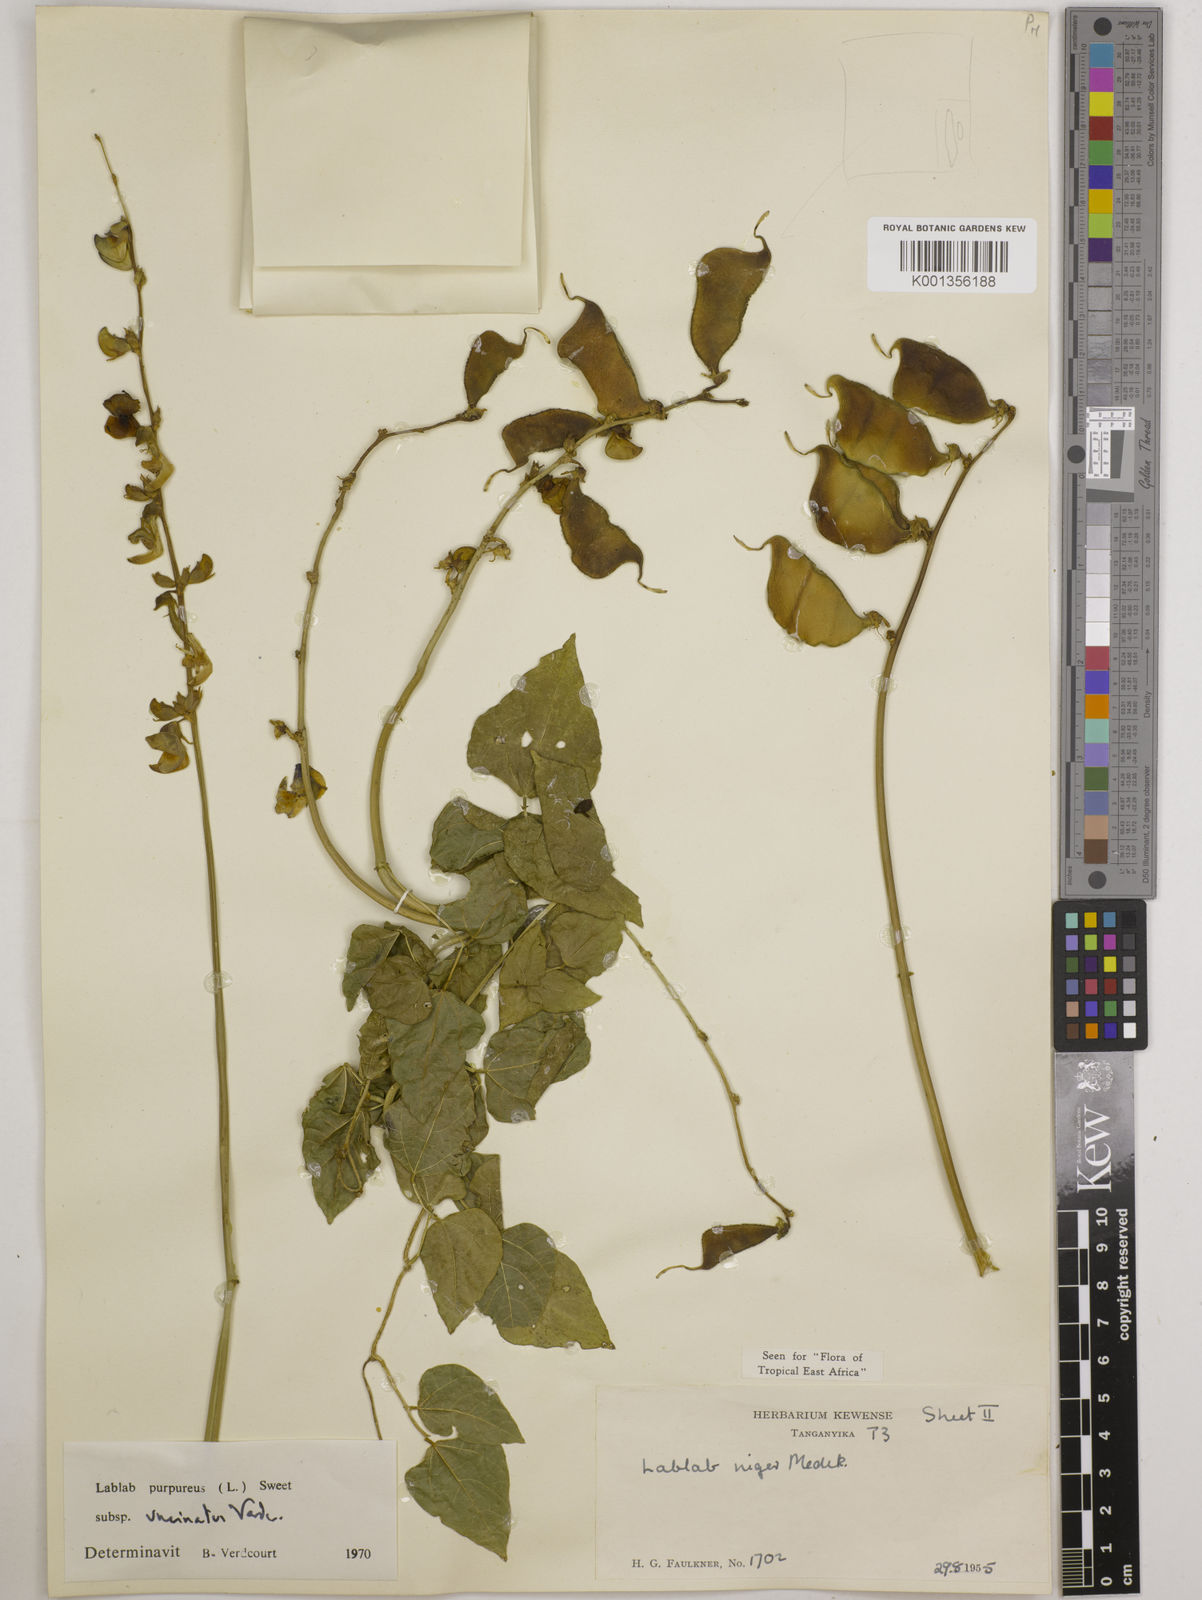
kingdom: Plantae
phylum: Tracheophyta
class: Magnoliopsida
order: Fabales
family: Fabaceae
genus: Lablab
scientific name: Lablab purpureus
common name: Lablab-bean
